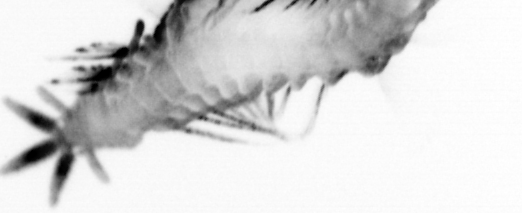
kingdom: Animalia
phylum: Annelida
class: Polychaeta
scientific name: Polychaeta
